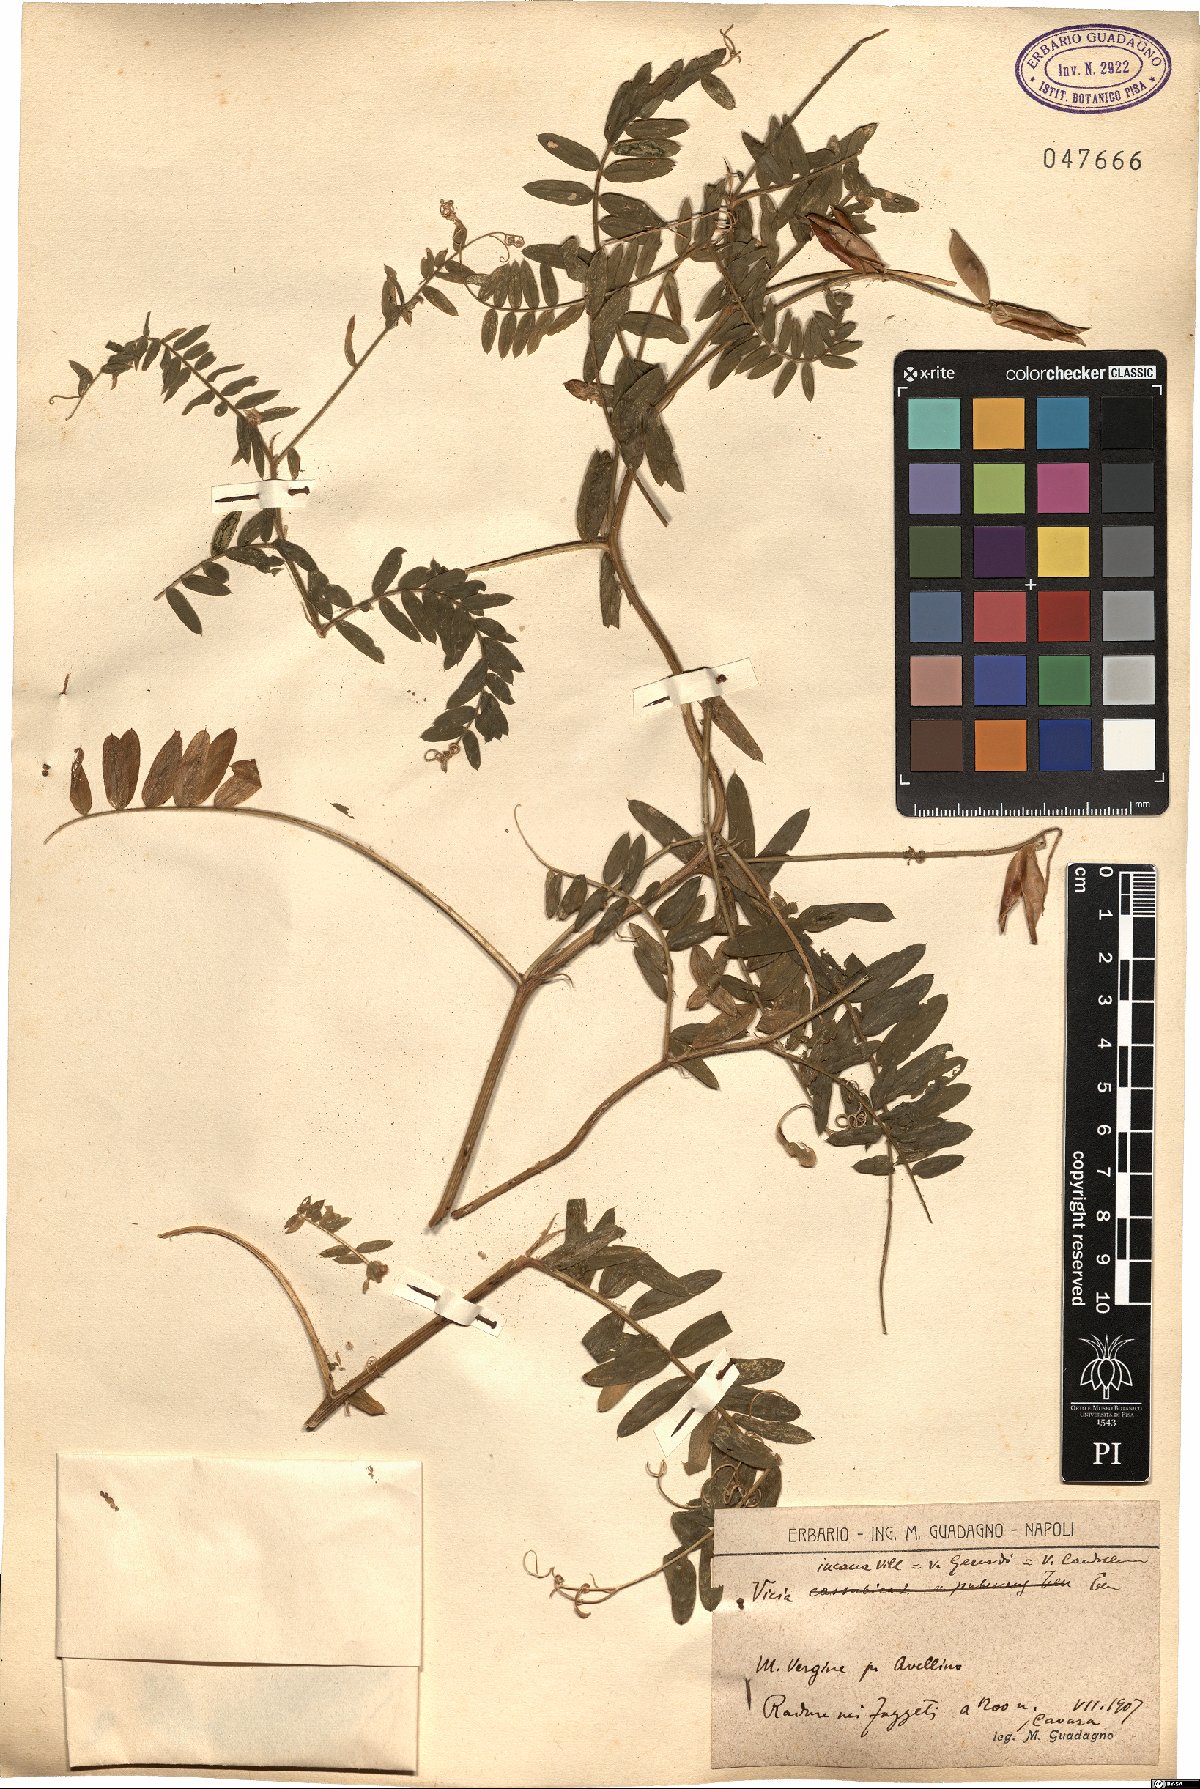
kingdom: Plantae
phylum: Tracheophyta
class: Magnoliopsida
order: Fabales
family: Fabaceae
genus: Vicia
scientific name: Vicia incana
